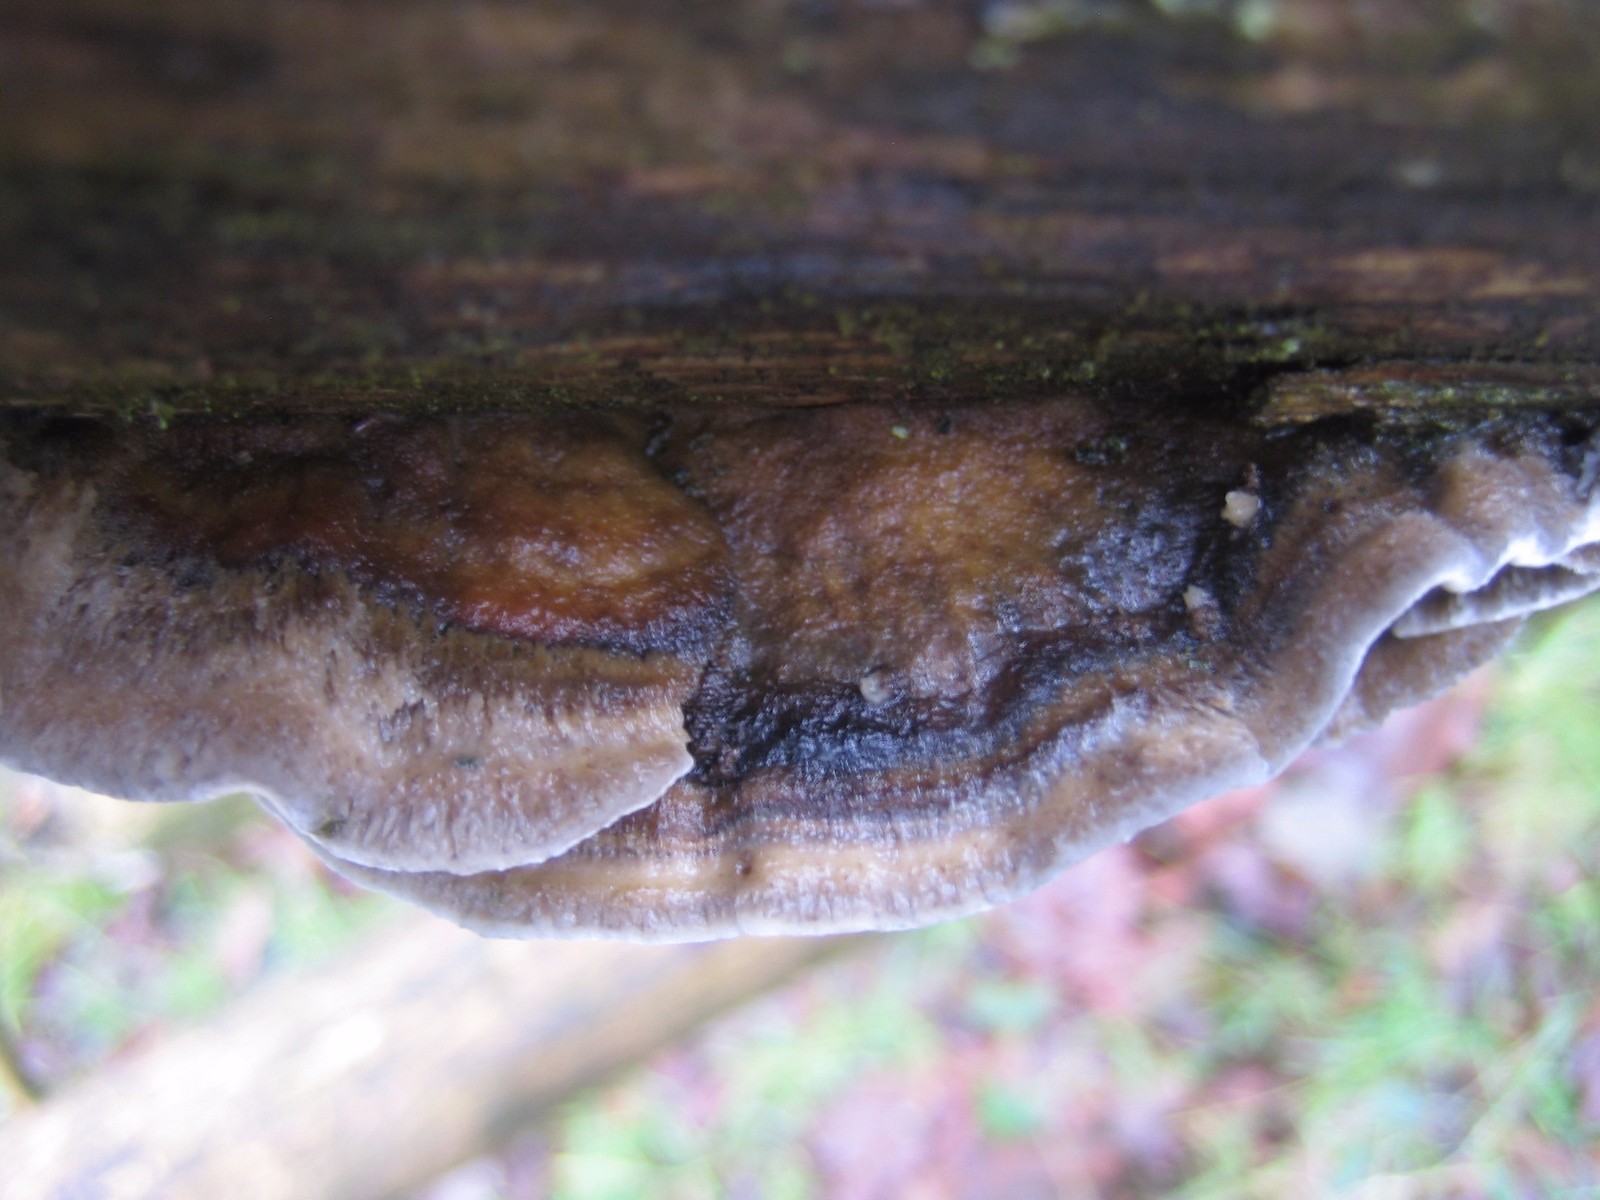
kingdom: Fungi
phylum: Basidiomycota
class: Agaricomycetes
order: Polyporales
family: Phanerochaetaceae
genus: Bjerkandera
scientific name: Bjerkandera adusta
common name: sveden sodporesvamp
